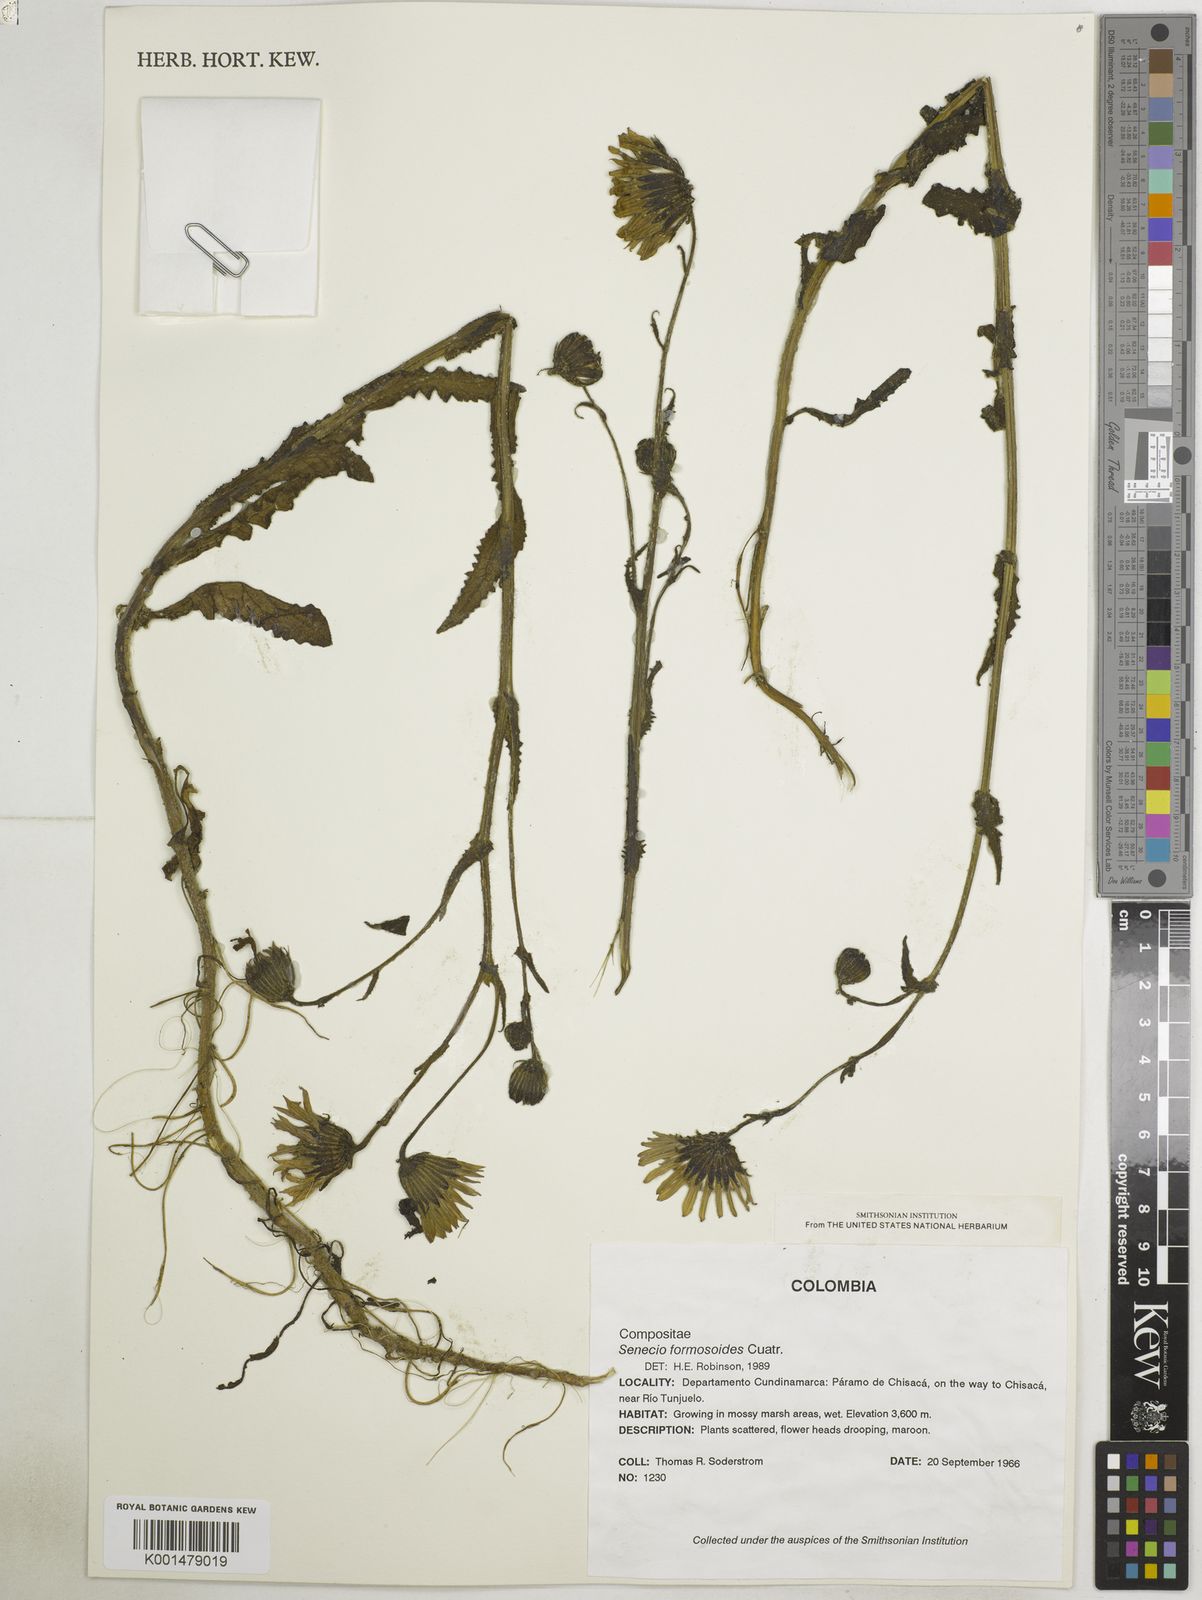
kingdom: Plantae
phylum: Tracheophyta
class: Magnoliopsida
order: Asterales
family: Asteraceae
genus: Senecio
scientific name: Senecio formosoides
